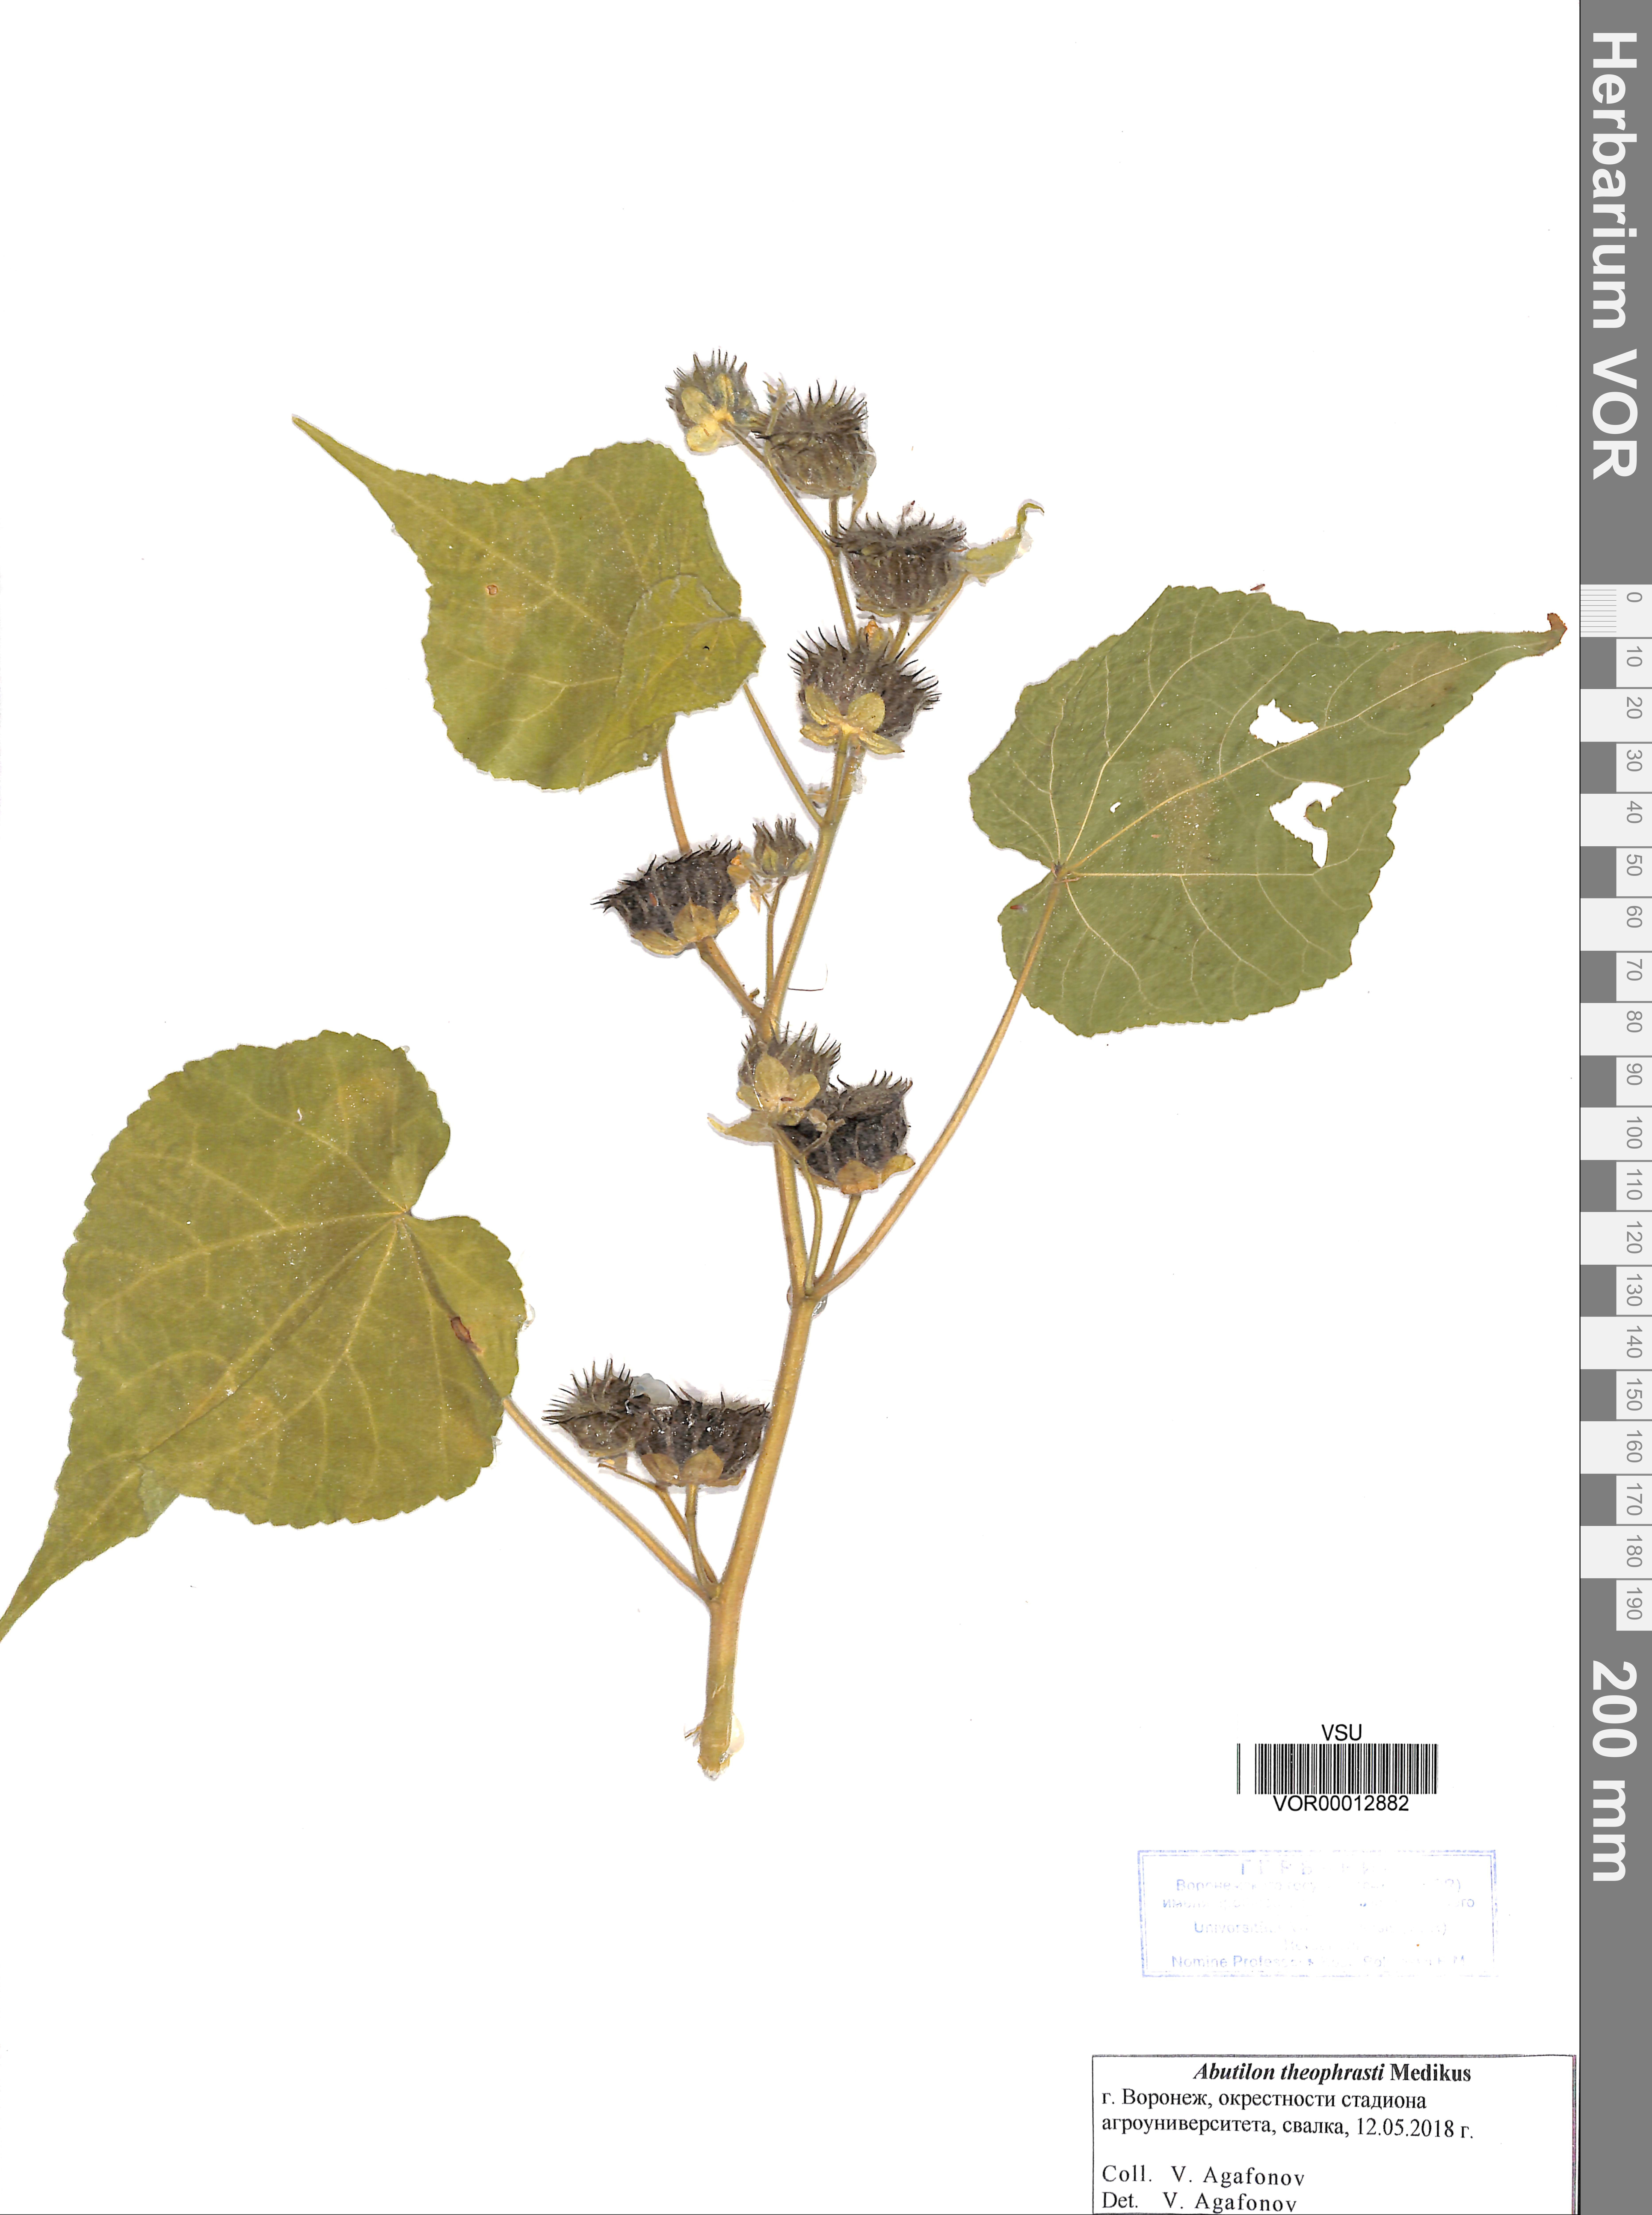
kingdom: Plantae
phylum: Tracheophyta
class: Magnoliopsida
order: Malvales
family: Malvaceae
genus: Abutilon
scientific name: Abutilon theophrasti
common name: Velvetleaf
